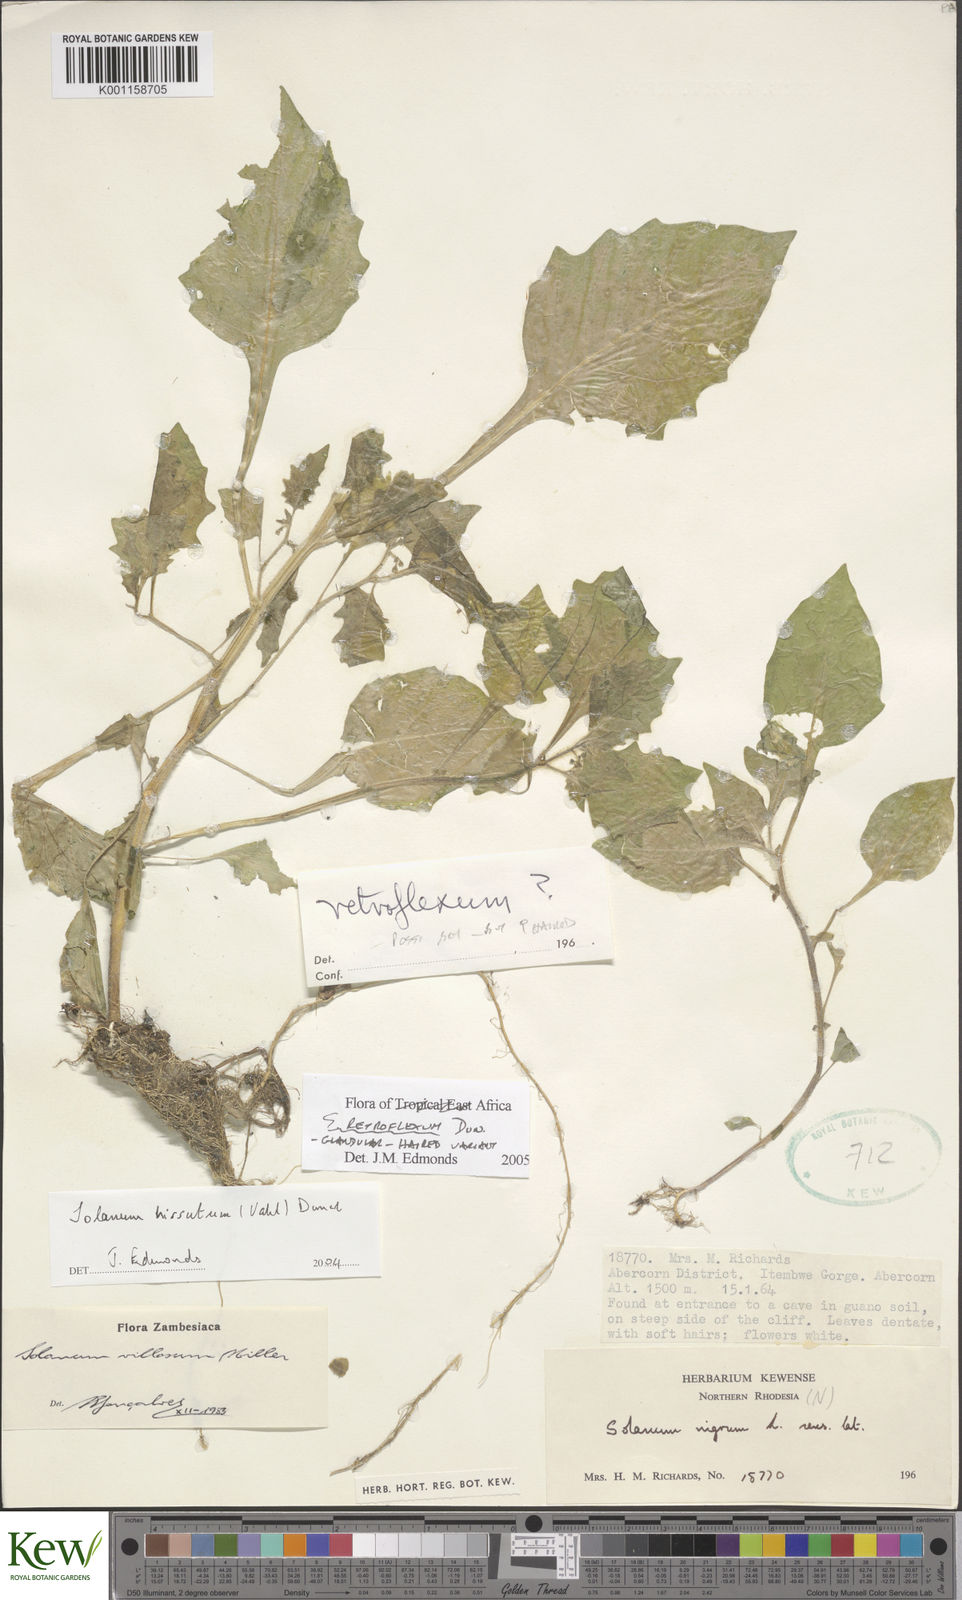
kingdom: Plantae
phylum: Tracheophyta
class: Magnoliopsida
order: Solanales
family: Solanaceae
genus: Solanum
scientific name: Solanum retroflexum
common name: Wonderberry
